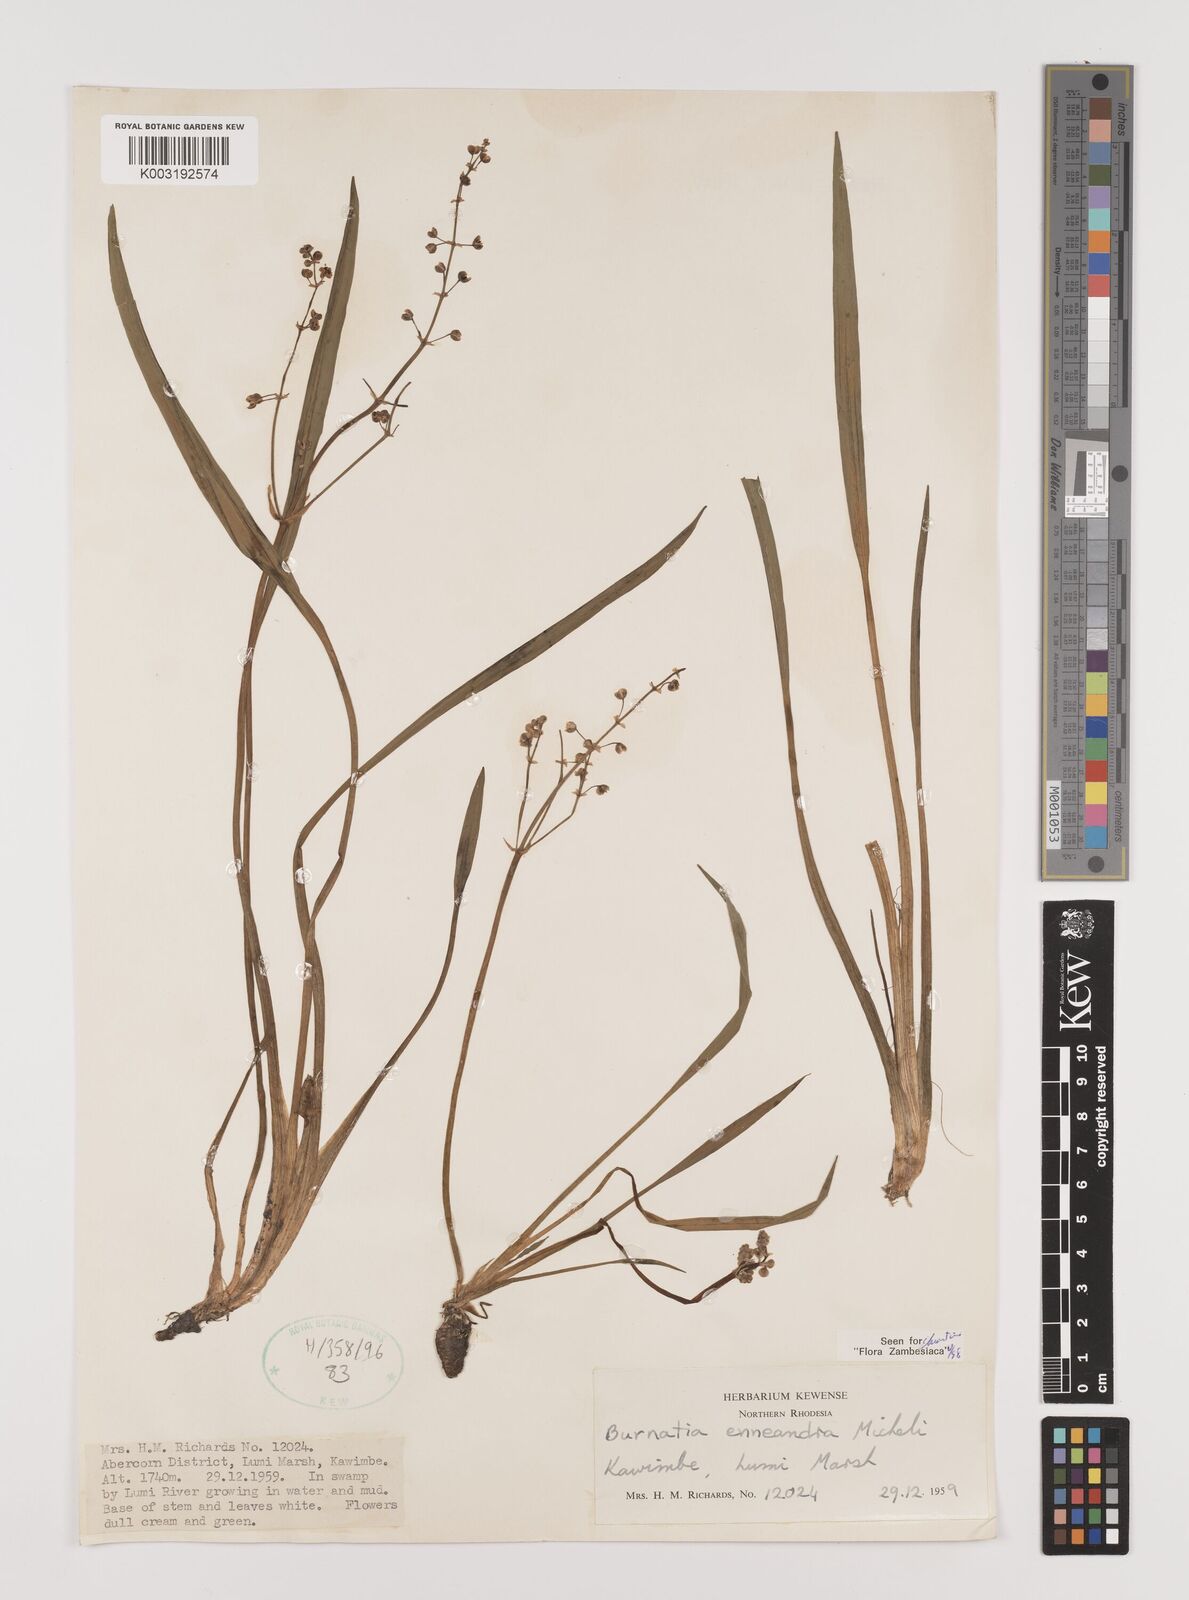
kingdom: Plantae
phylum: Tracheophyta
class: Liliopsida
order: Alismatales
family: Alismataceae
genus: Burnatia
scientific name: Burnatia enneandra
